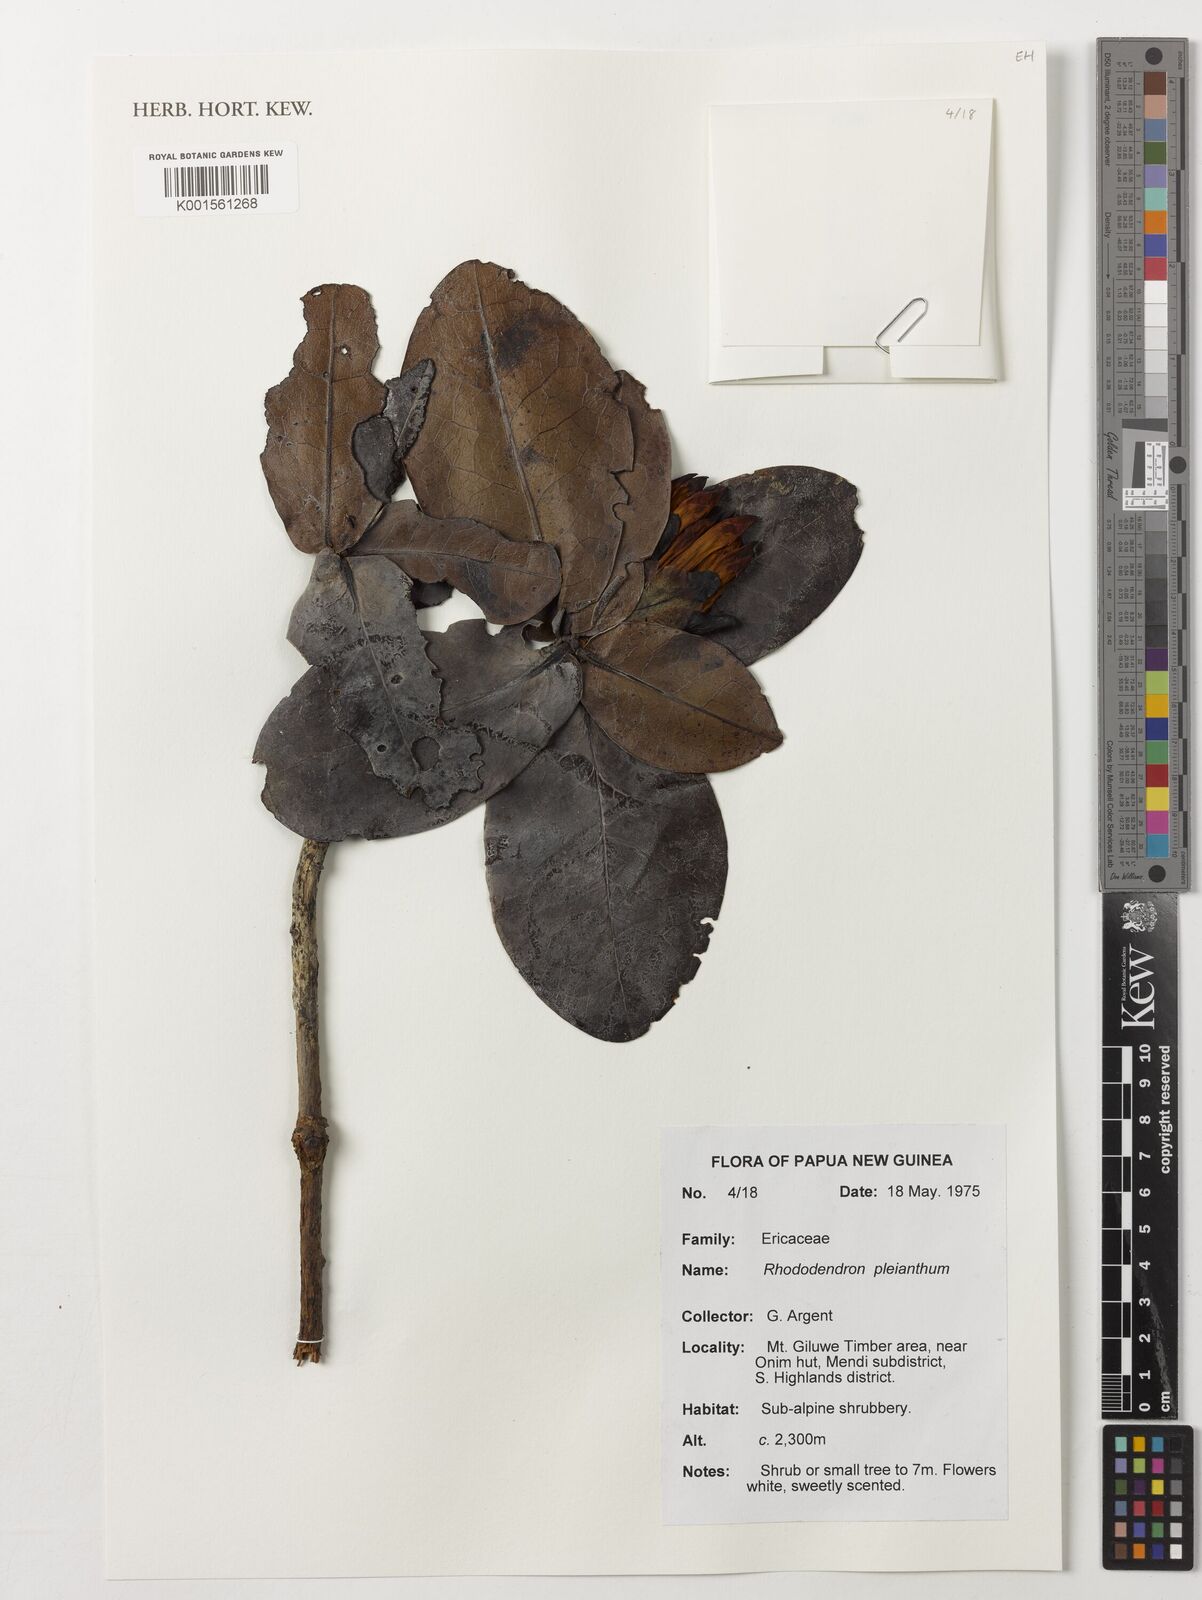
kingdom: Plantae
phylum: Tracheophyta
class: Magnoliopsida
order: Ericales
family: Ericaceae
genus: Rhododendron
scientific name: Rhododendron pleianthum
